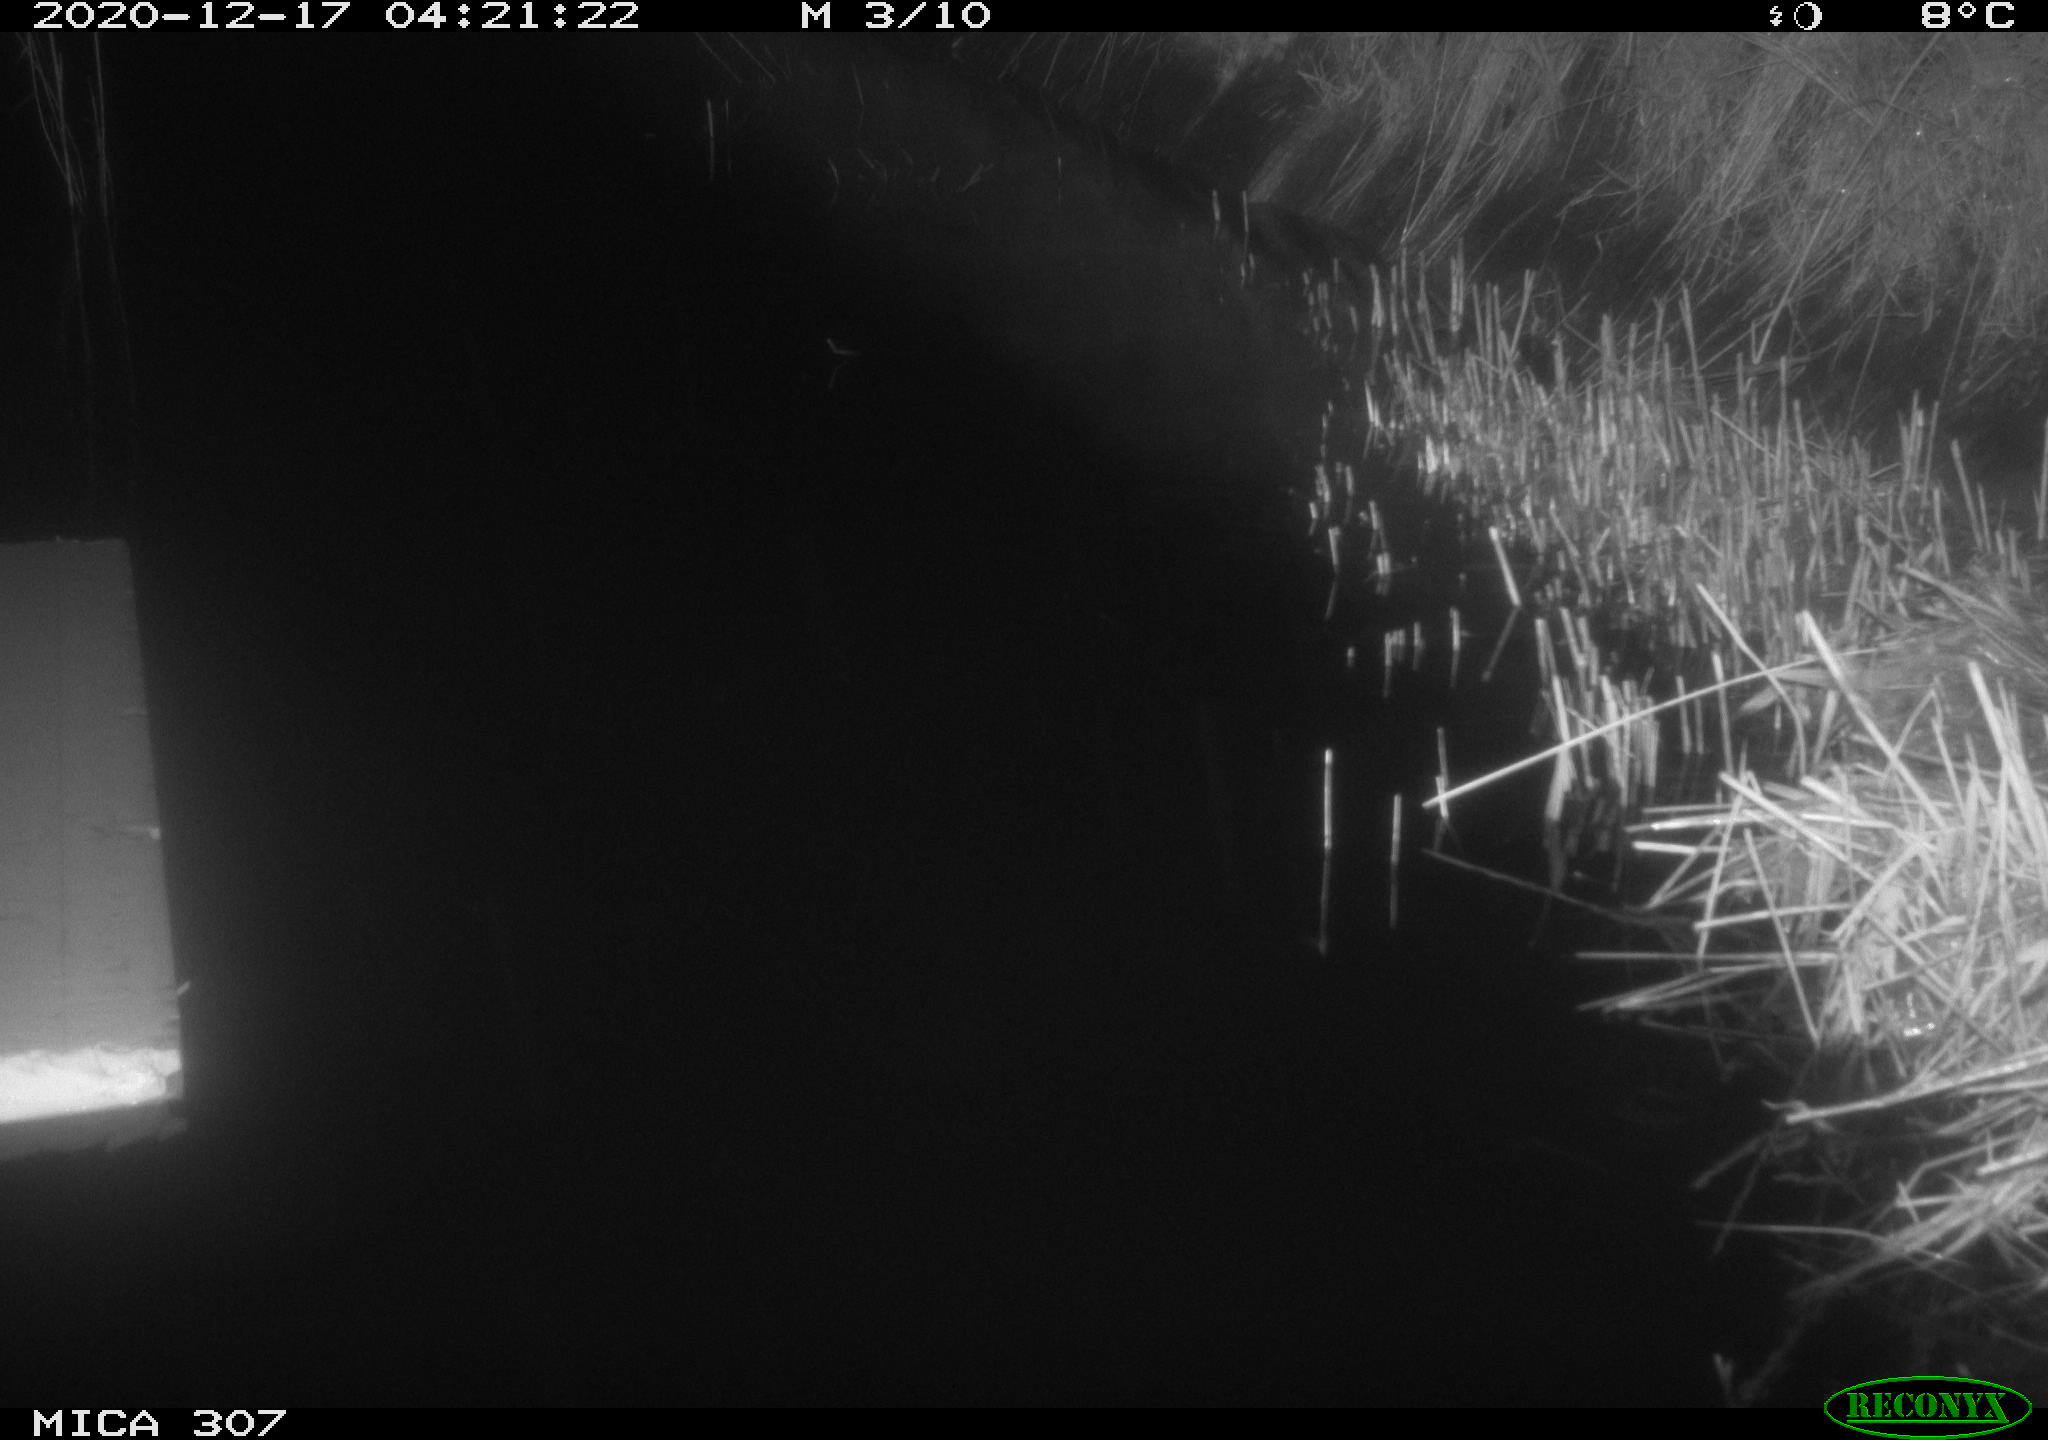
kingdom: Animalia
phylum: Chordata
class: Mammalia
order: Rodentia
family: Muridae
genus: Rattus
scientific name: Rattus norvegicus
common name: Brown rat
